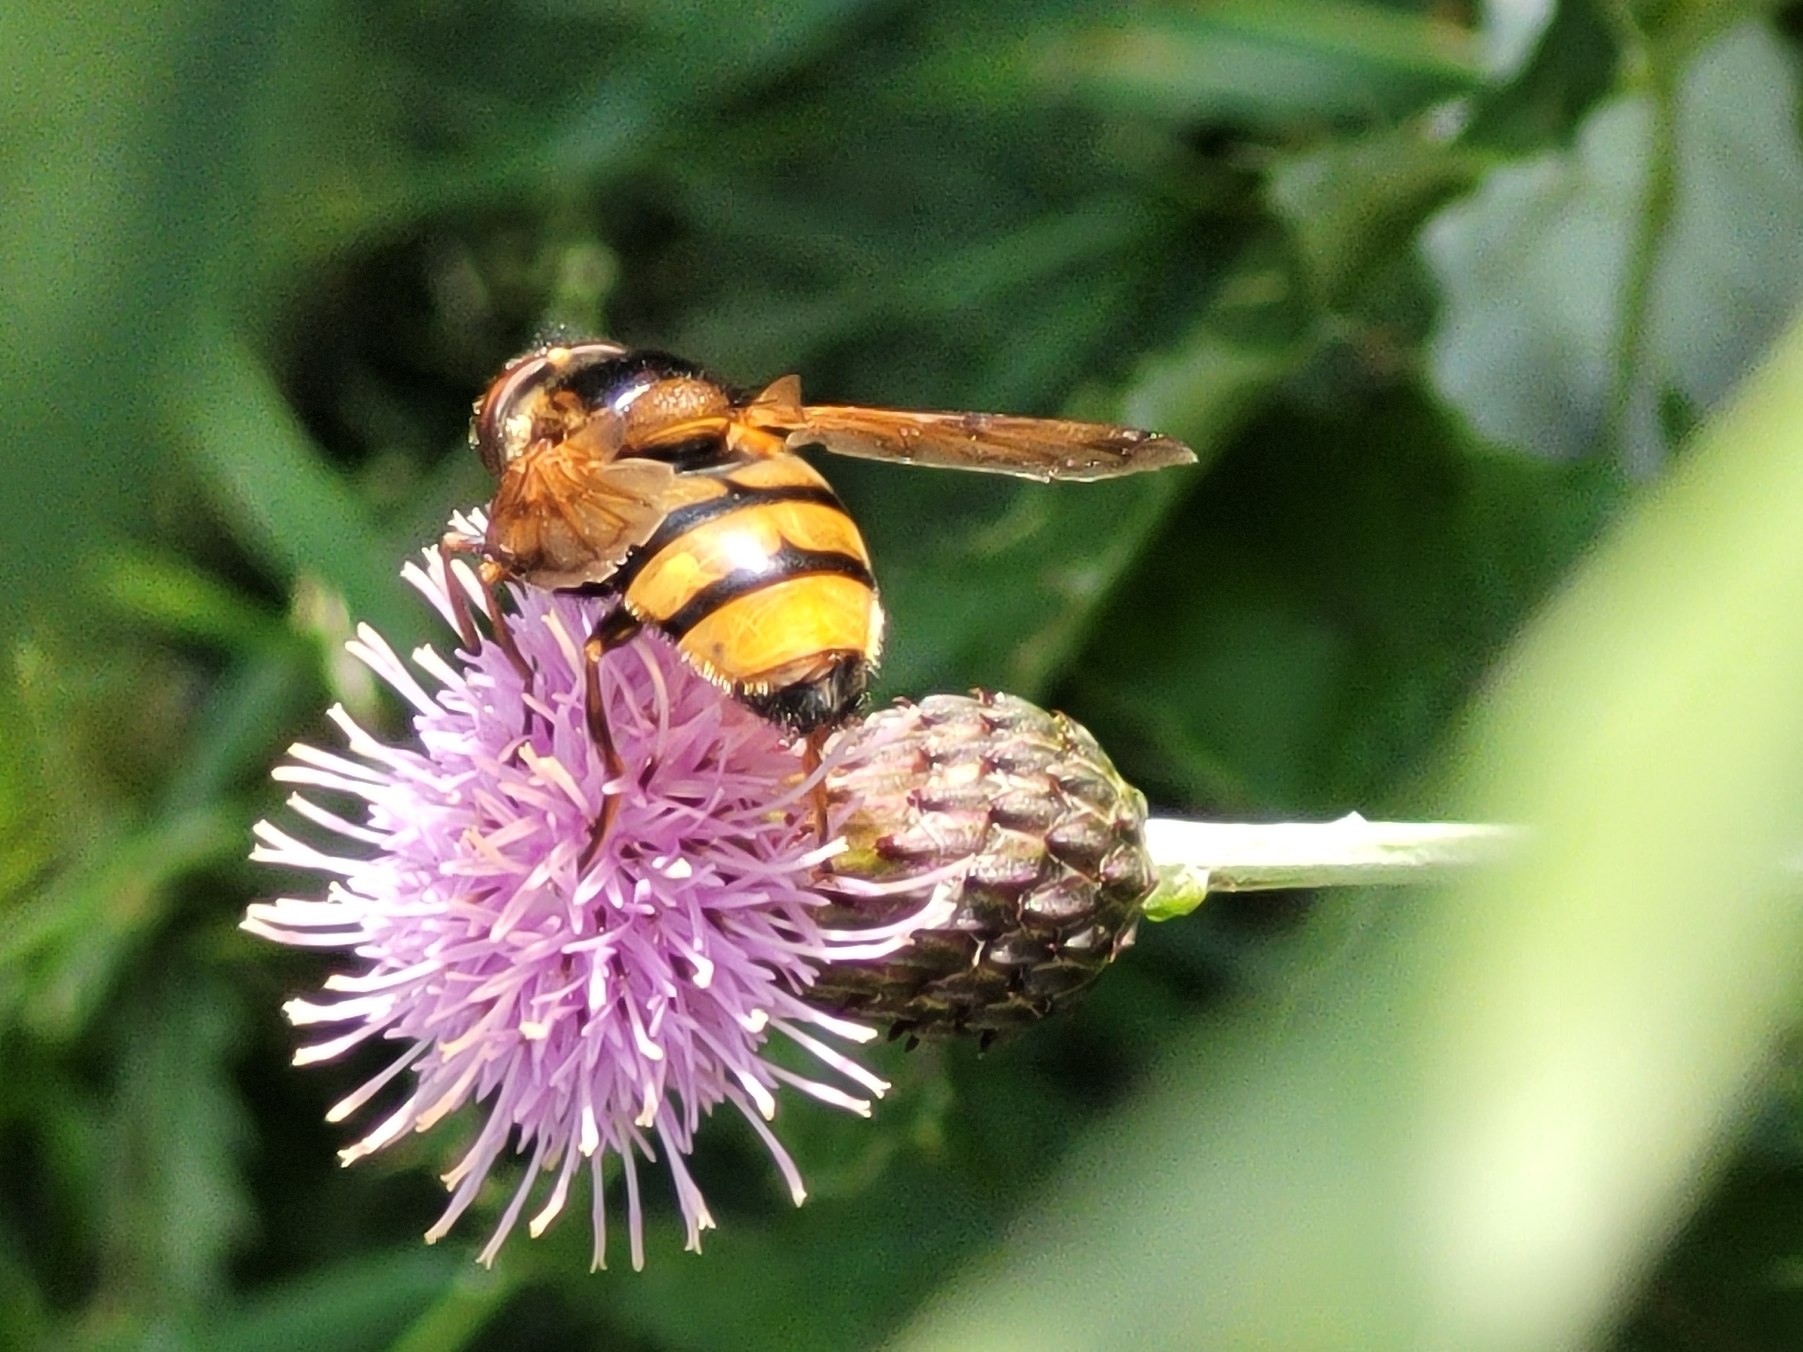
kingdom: Animalia
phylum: Arthropoda
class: Insecta
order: Diptera
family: Syrphidae
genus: Volucella
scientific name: Volucella inanis
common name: Gul humlesvirreflue
